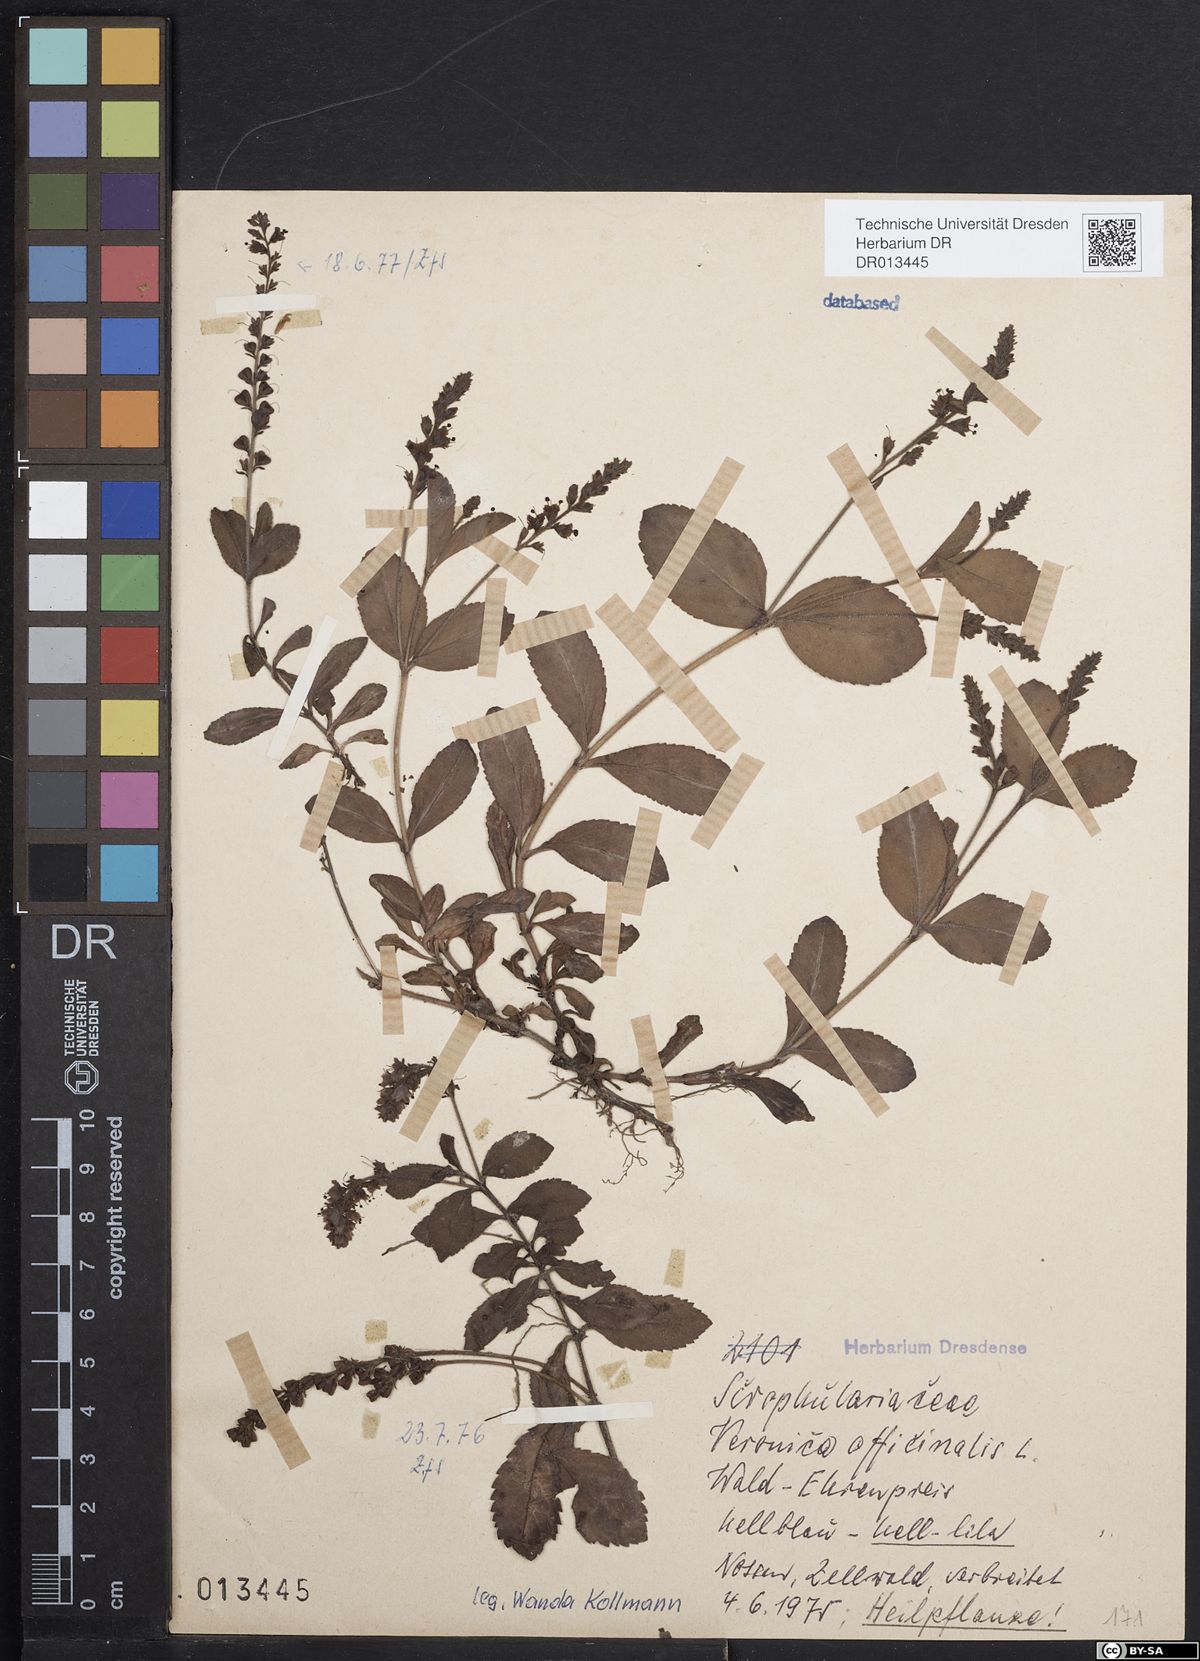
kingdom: Plantae
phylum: Tracheophyta
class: Magnoliopsida
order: Lamiales
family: Plantaginaceae
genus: Veronica
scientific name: Veronica officinalis
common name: Common speedwell
